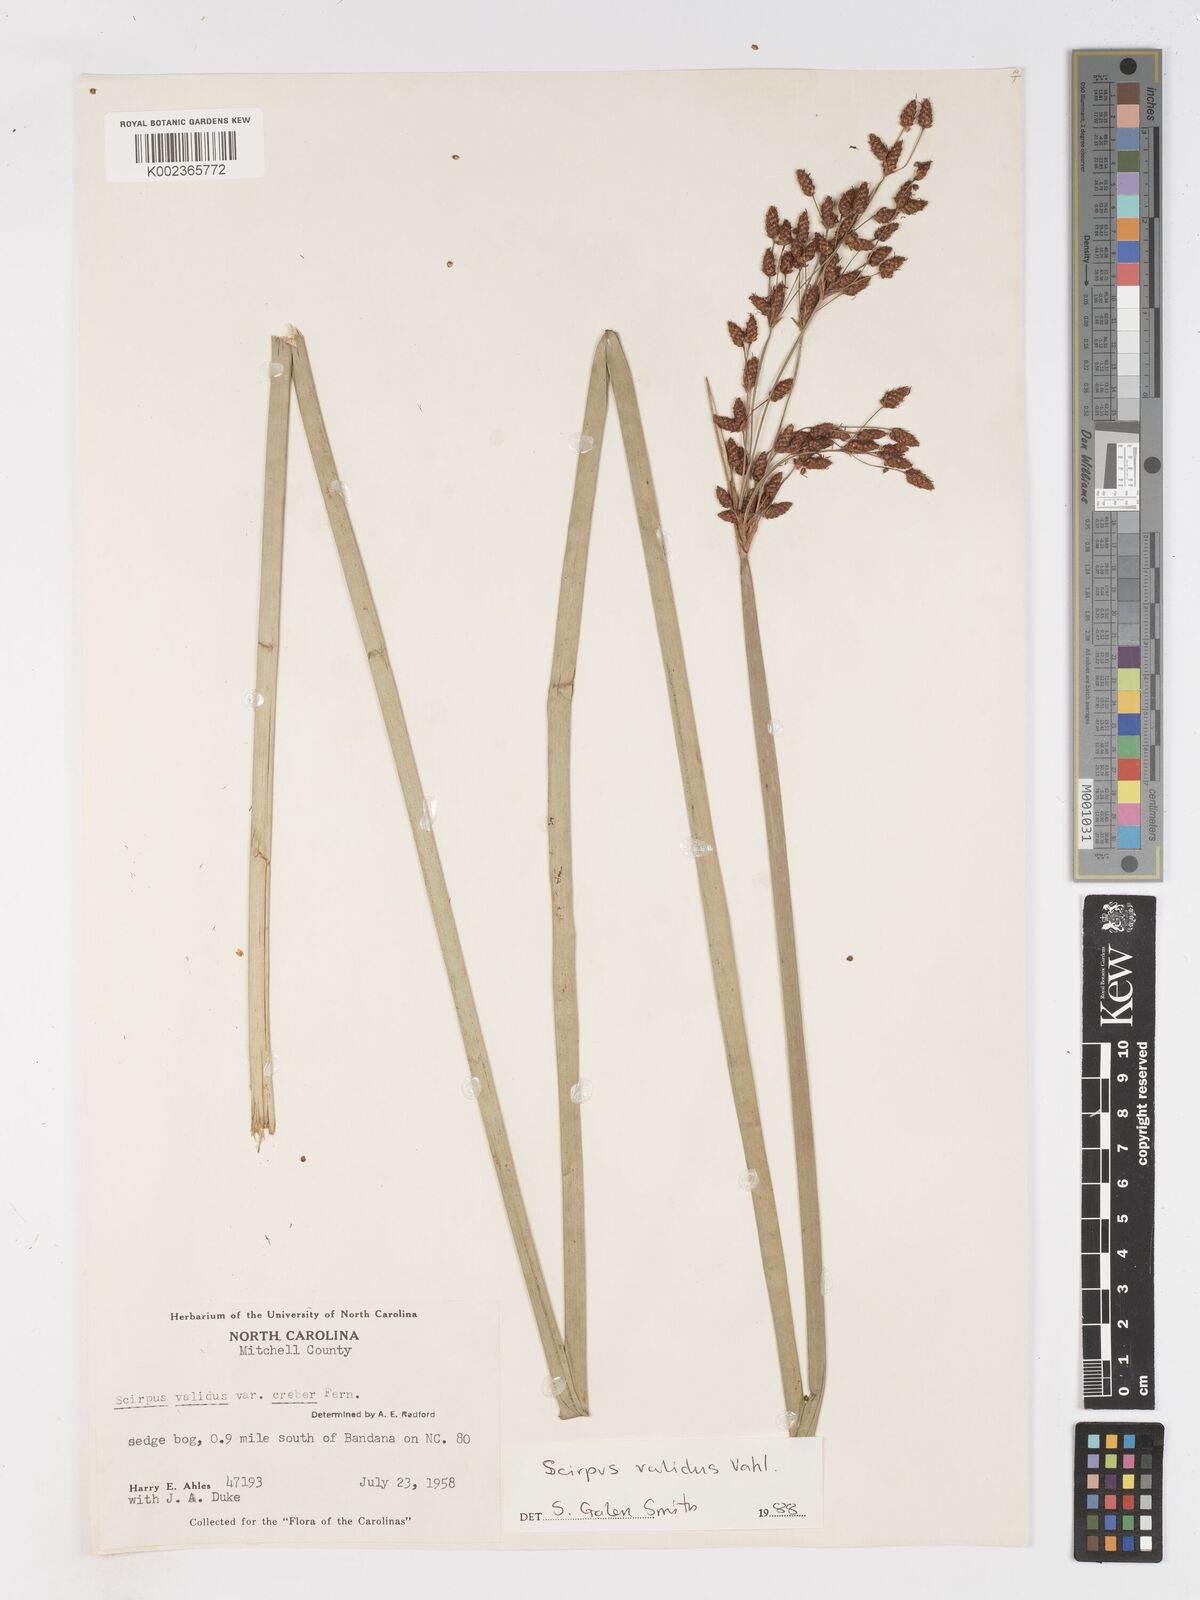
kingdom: Plantae
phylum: Tracheophyta
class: Liliopsida
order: Poales
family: Cyperaceae
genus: Schoenoplectus
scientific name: Schoenoplectus tabernaemontani
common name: Grey club-rush
